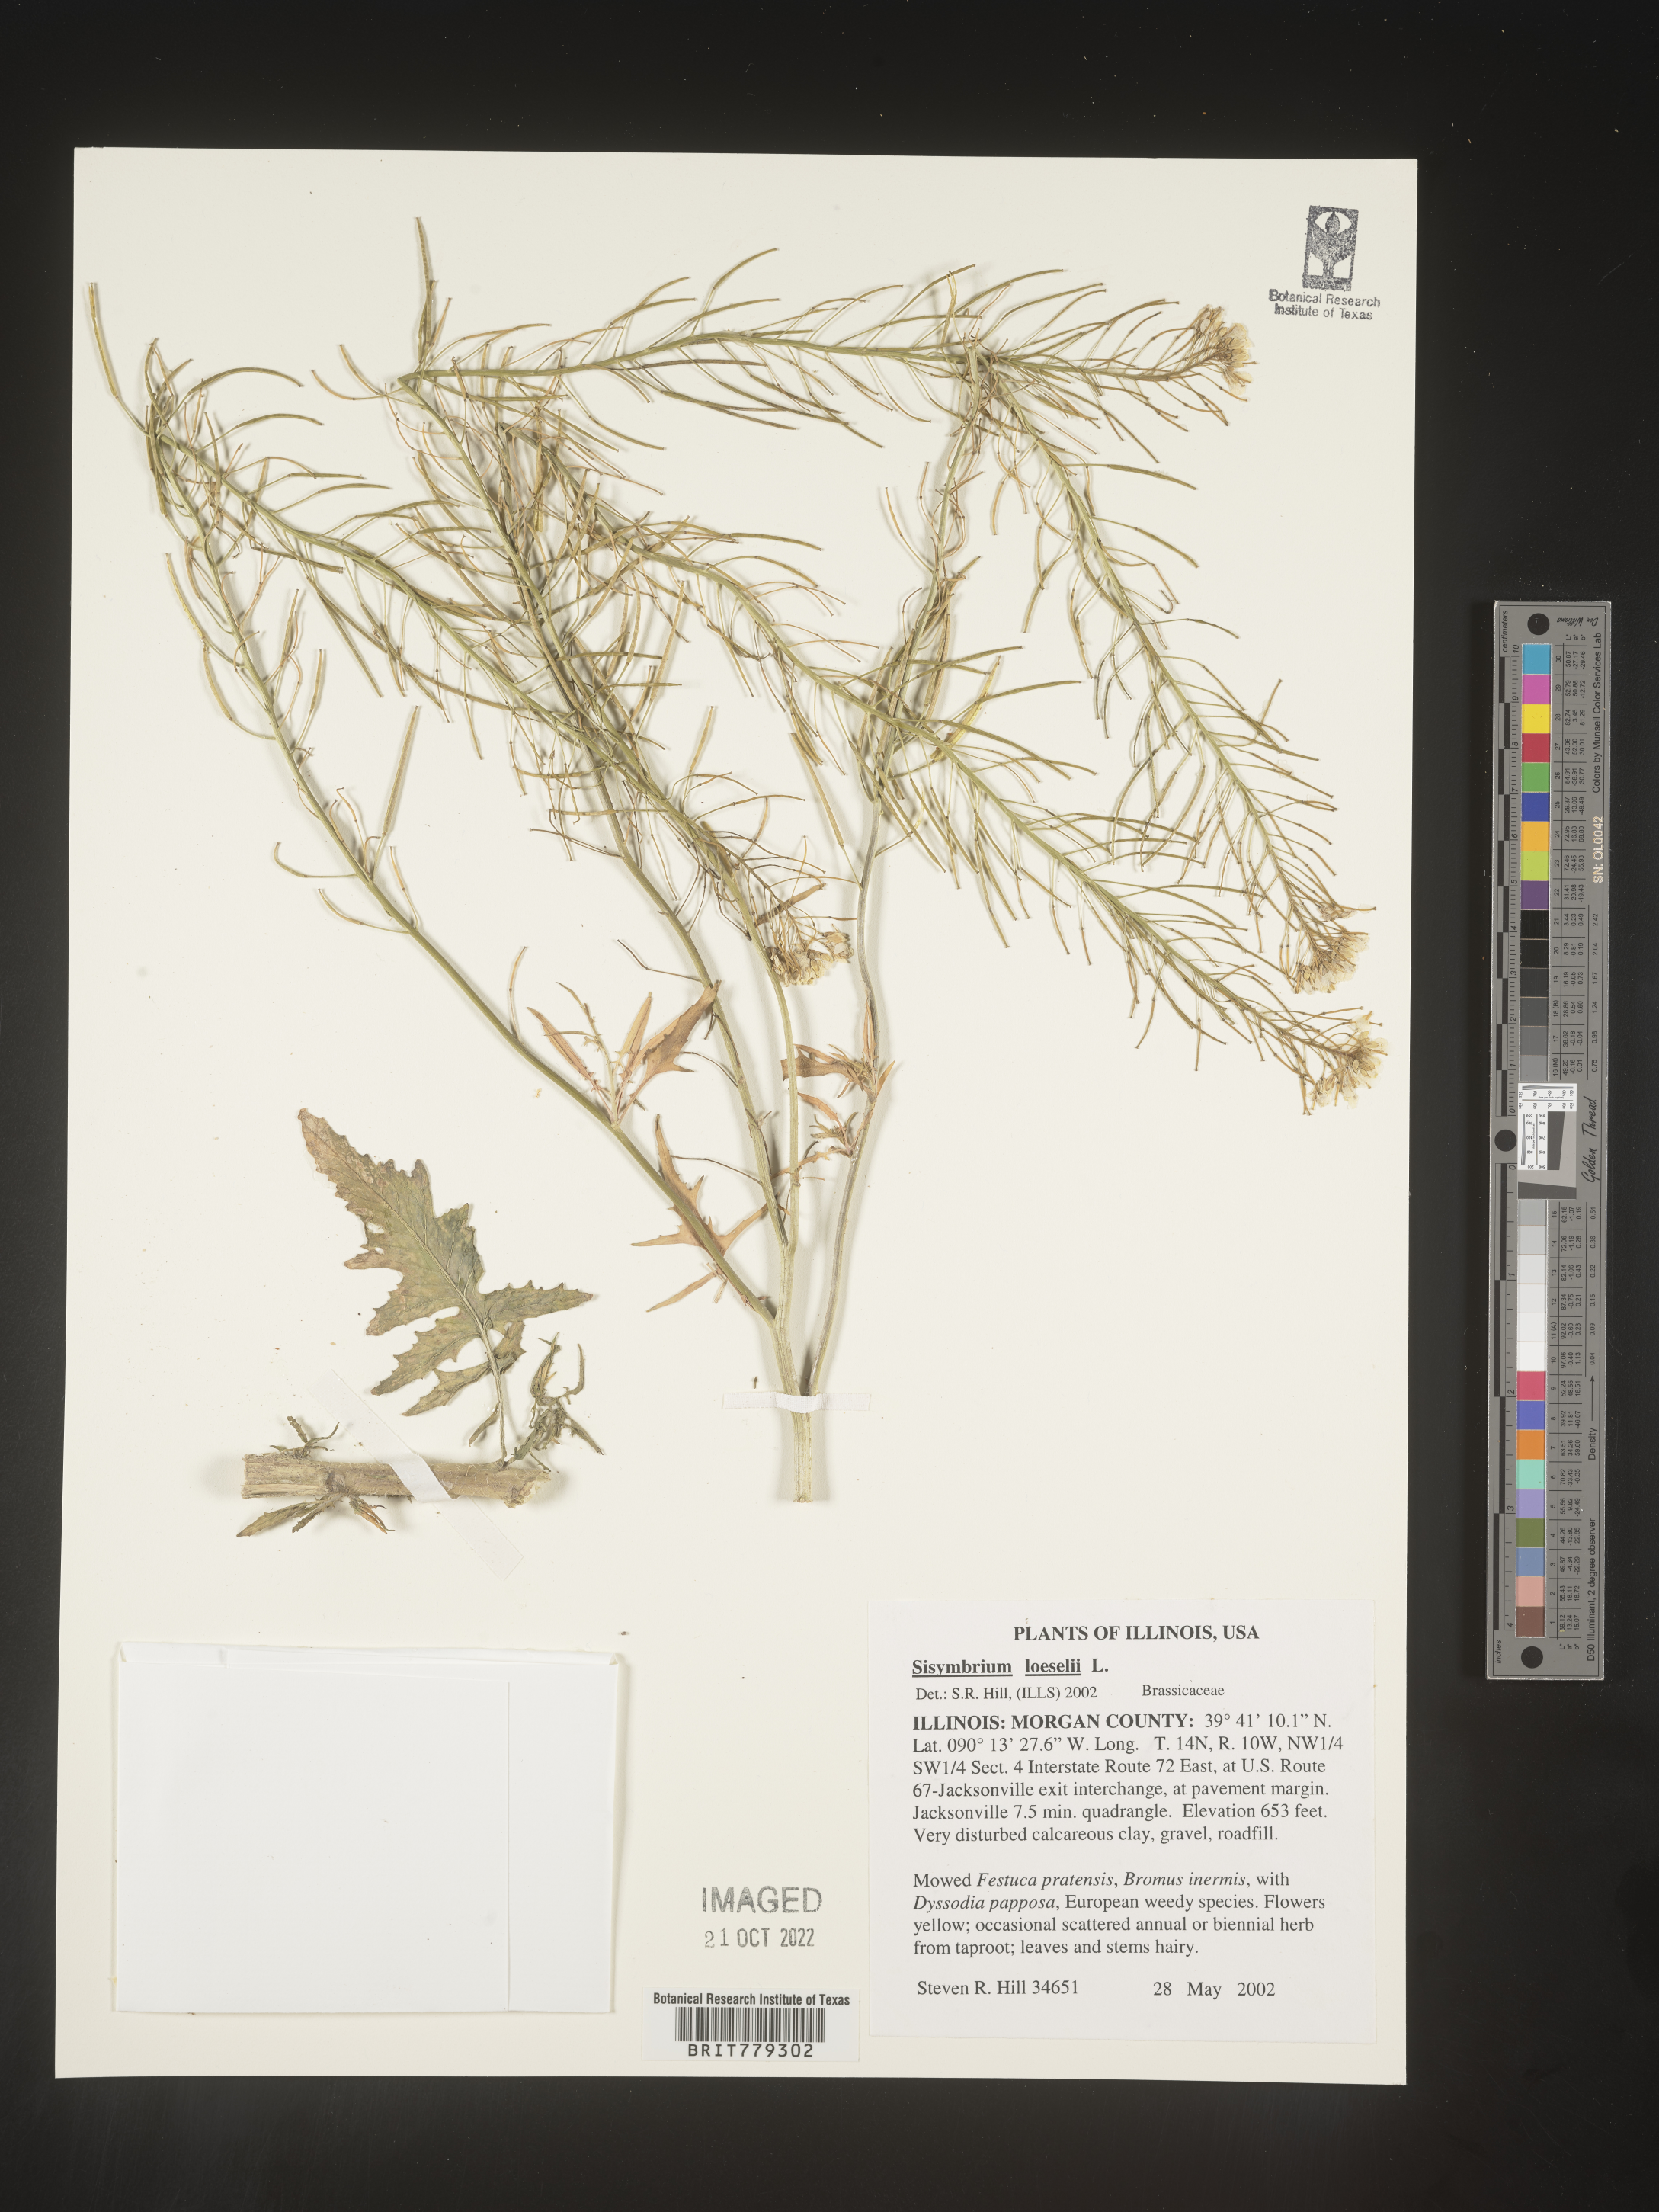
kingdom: Plantae
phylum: Tracheophyta
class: Magnoliopsida
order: Brassicales
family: Brassicaceae
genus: Sisymbrium
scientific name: Sisymbrium
